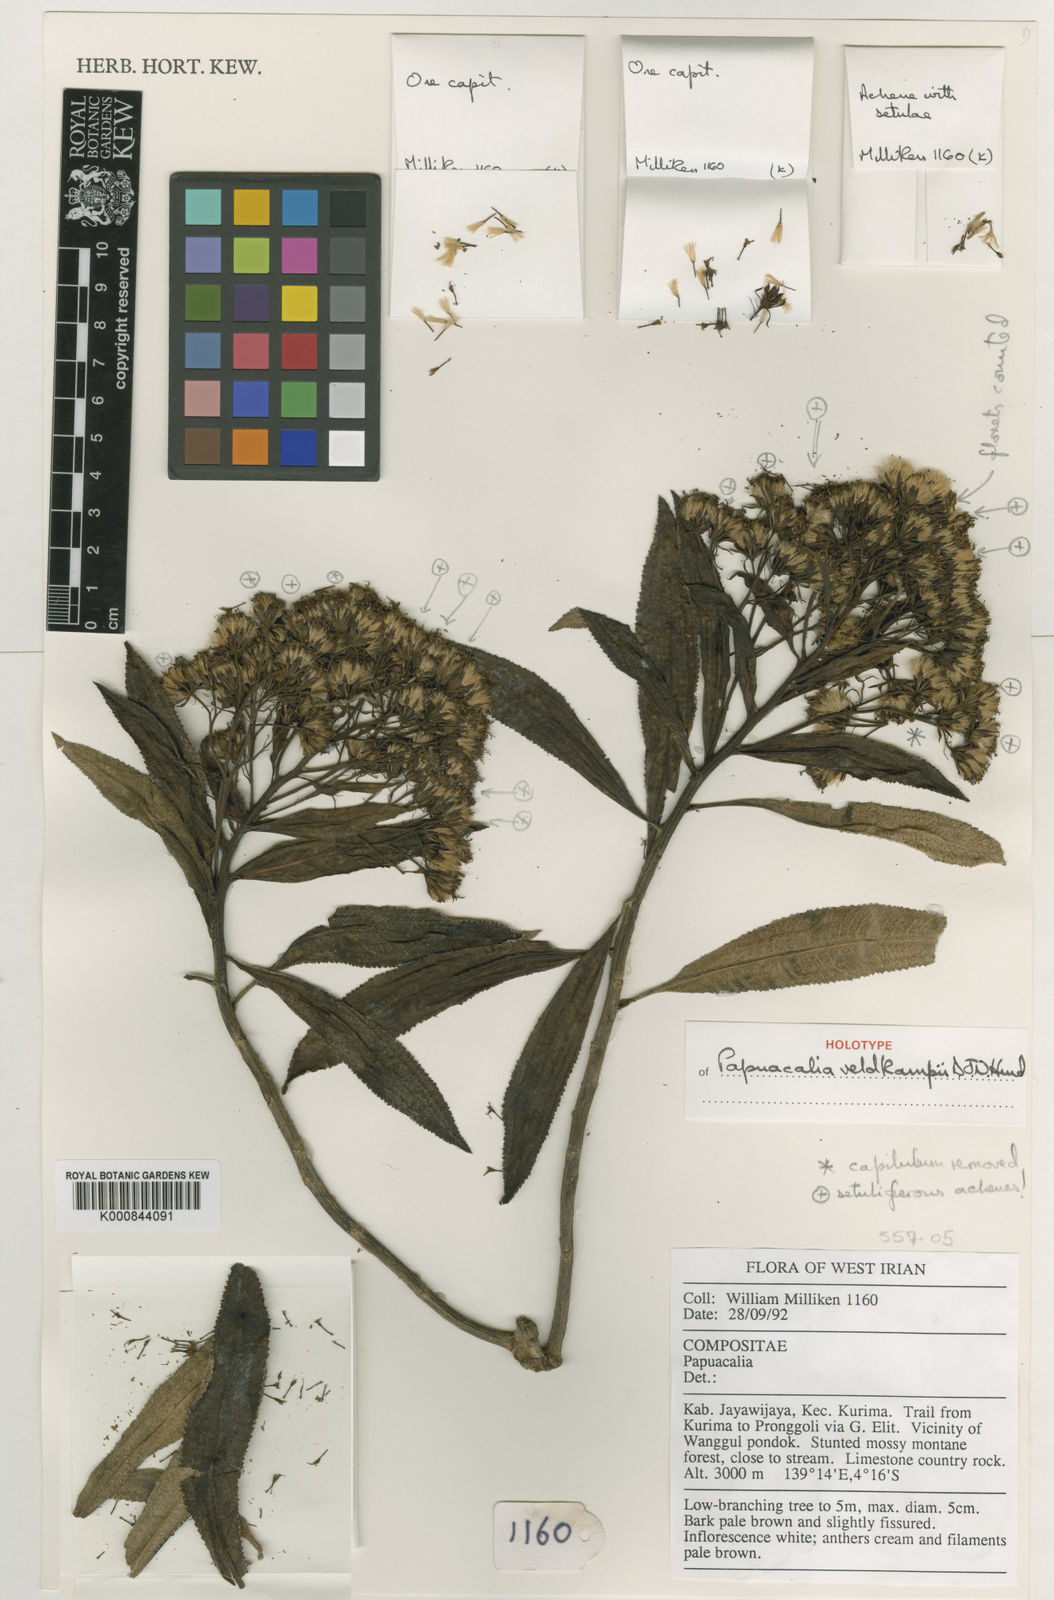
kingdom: Plantae
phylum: Tracheophyta
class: Magnoliopsida
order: Asterales
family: Asteraceae
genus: Papuacalia
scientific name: Papuacalia veldkampii
